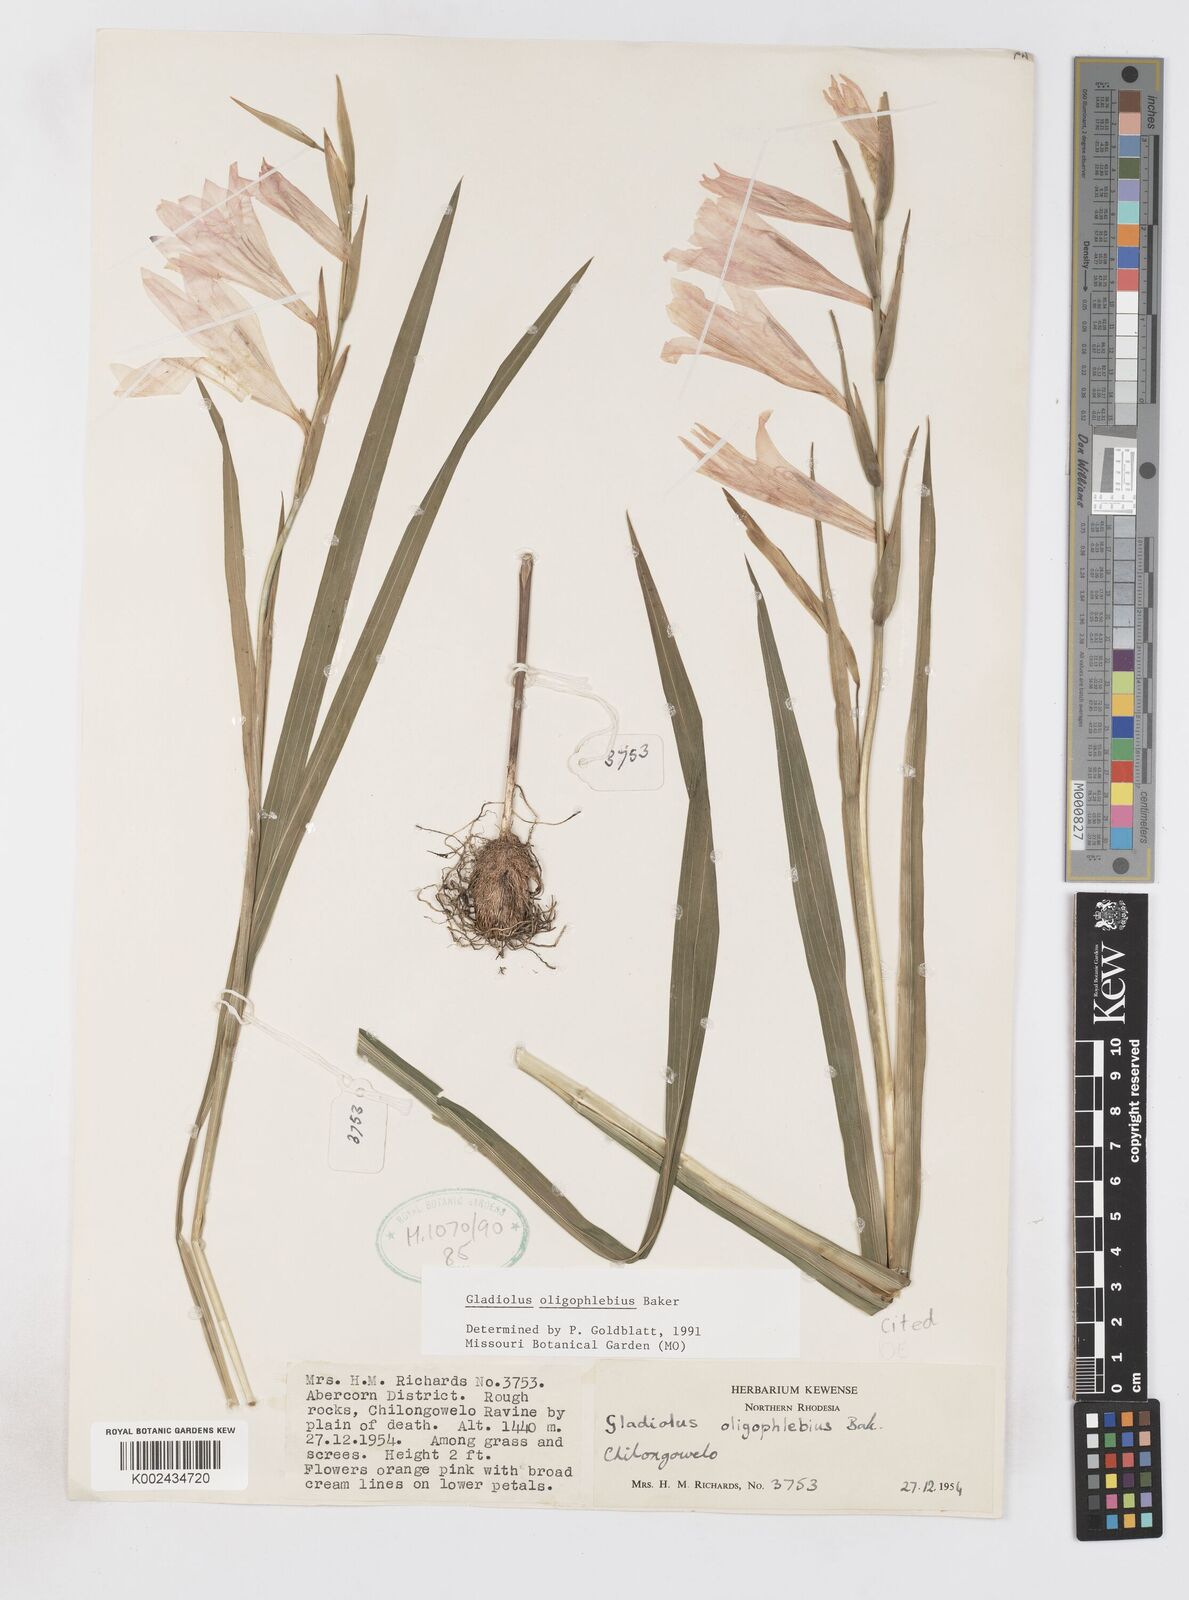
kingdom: Plantae
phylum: Tracheophyta
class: Liliopsida
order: Asparagales
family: Iridaceae
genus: Gladiolus
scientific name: Gladiolus oligophlebius
